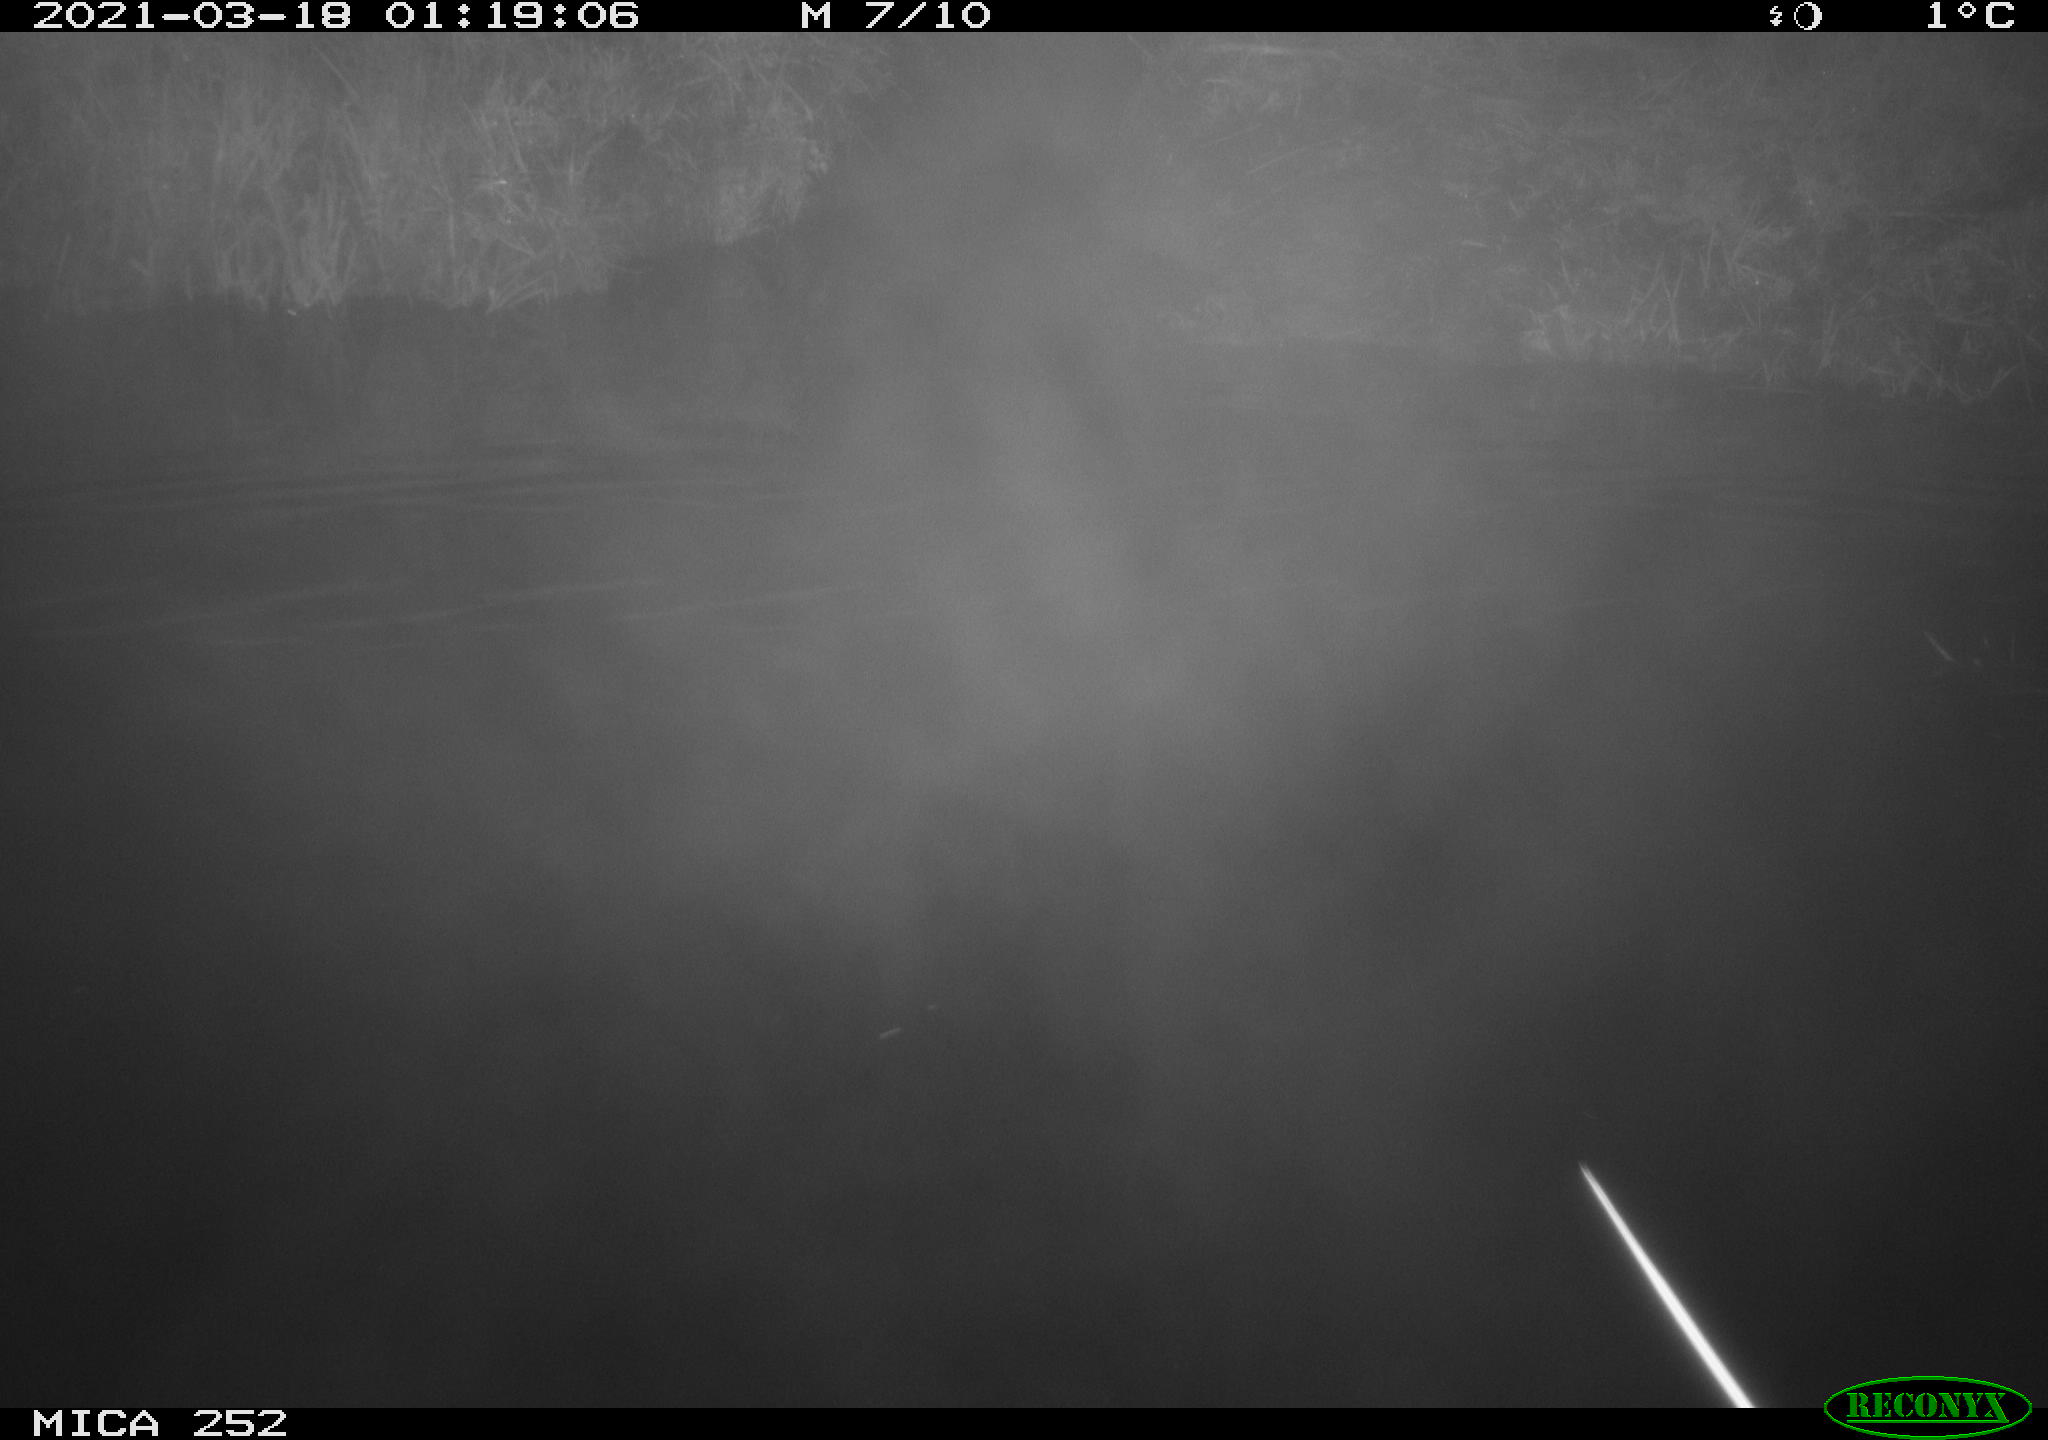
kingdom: Animalia
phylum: Chordata
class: Aves
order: Anseriformes
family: Anatidae
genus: Anas
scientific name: Anas platyrhynchos
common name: Mallard
